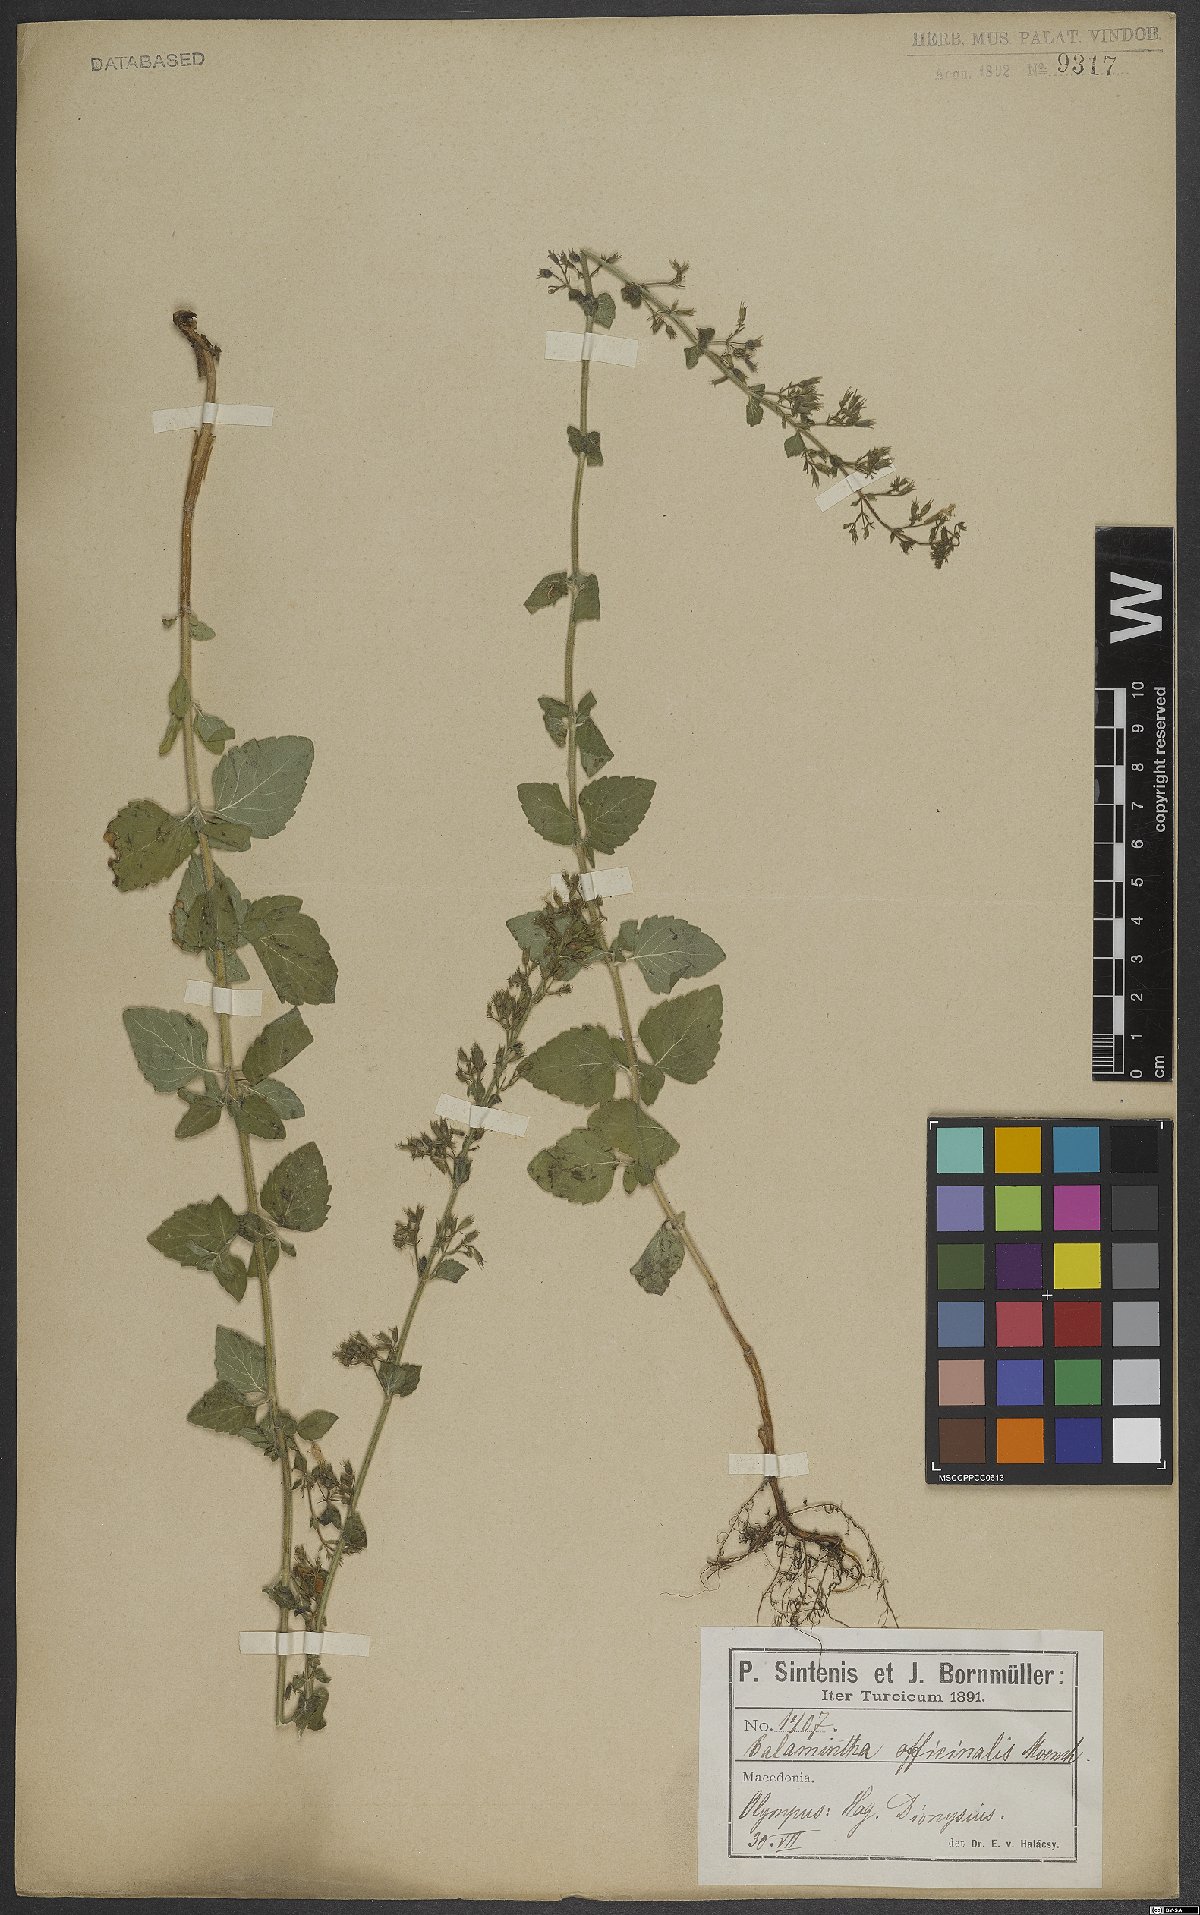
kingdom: Plantae
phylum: Tracheophyta
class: Magnoliopsida
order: Lamiales
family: Lamiaceae
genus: Clinopodium
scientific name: Clinopodium nepeta
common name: Lesser calamint
